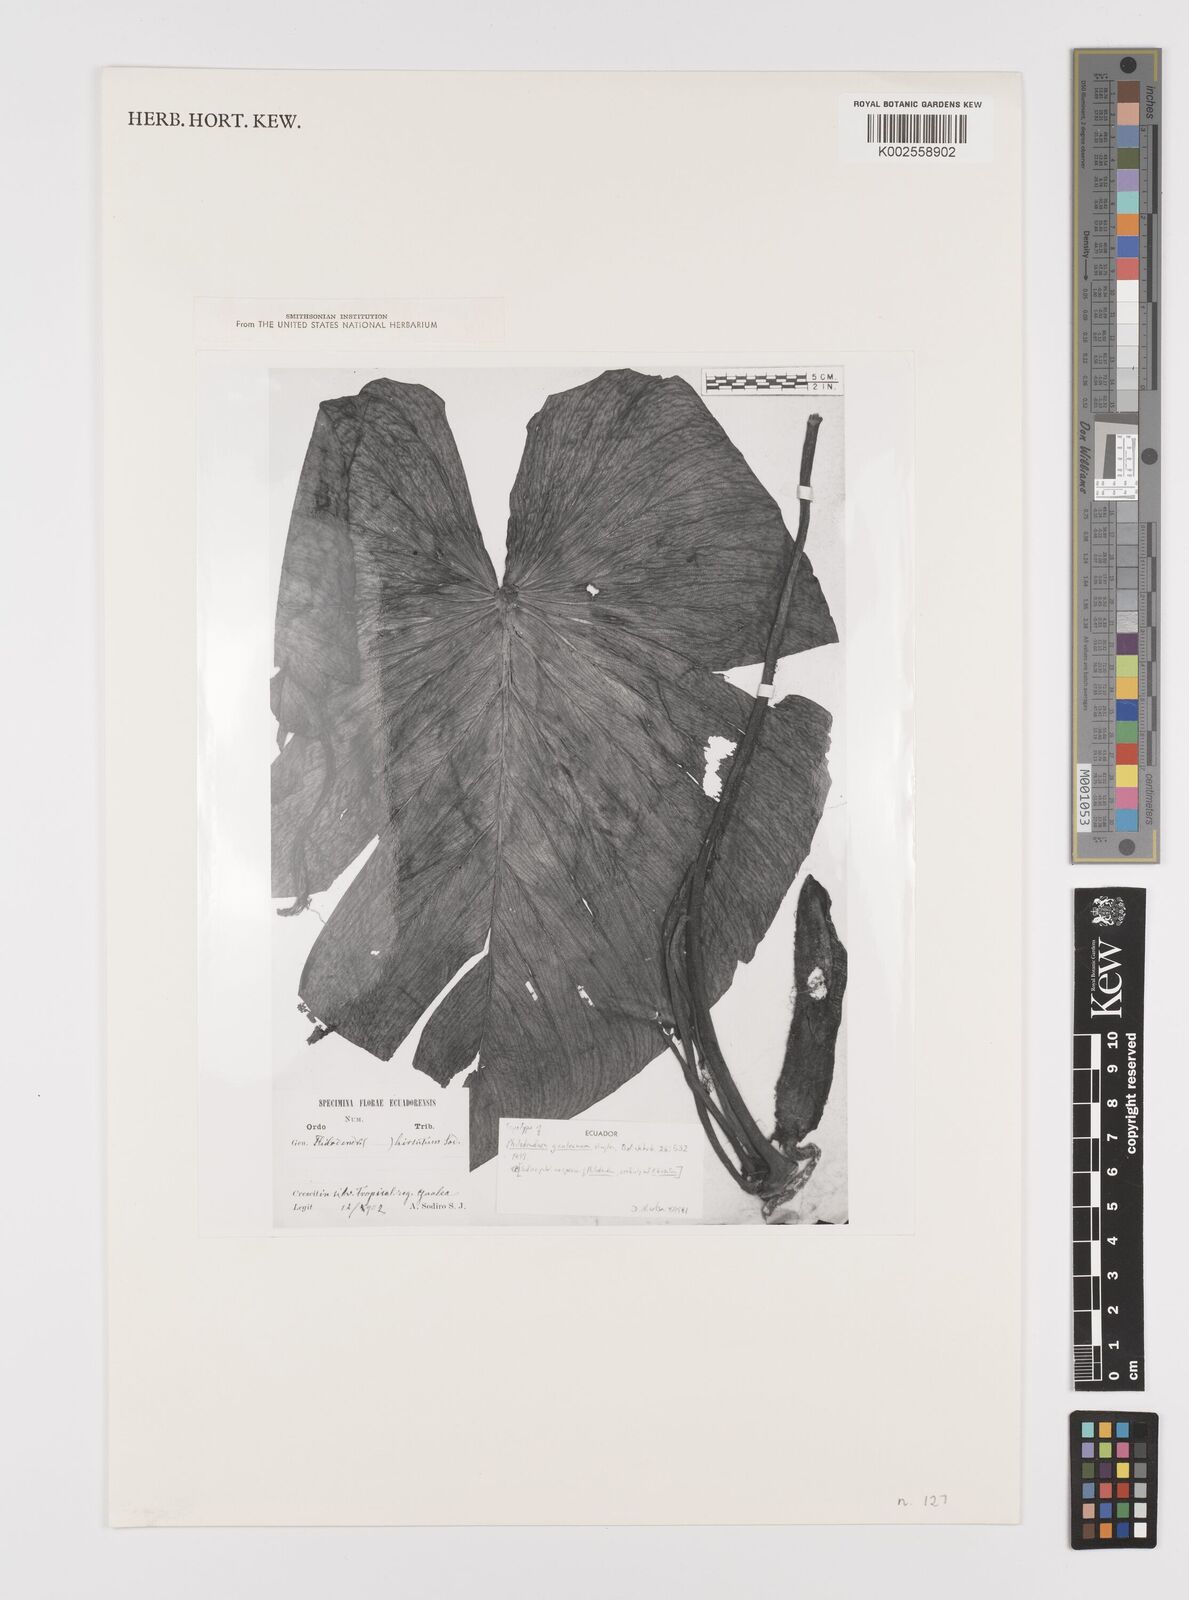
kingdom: Plantae
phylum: Tracheophyta
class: Liliopsida
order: Alismatales
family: Araceae
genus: Philodendron
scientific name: Philodendron gualeanum
